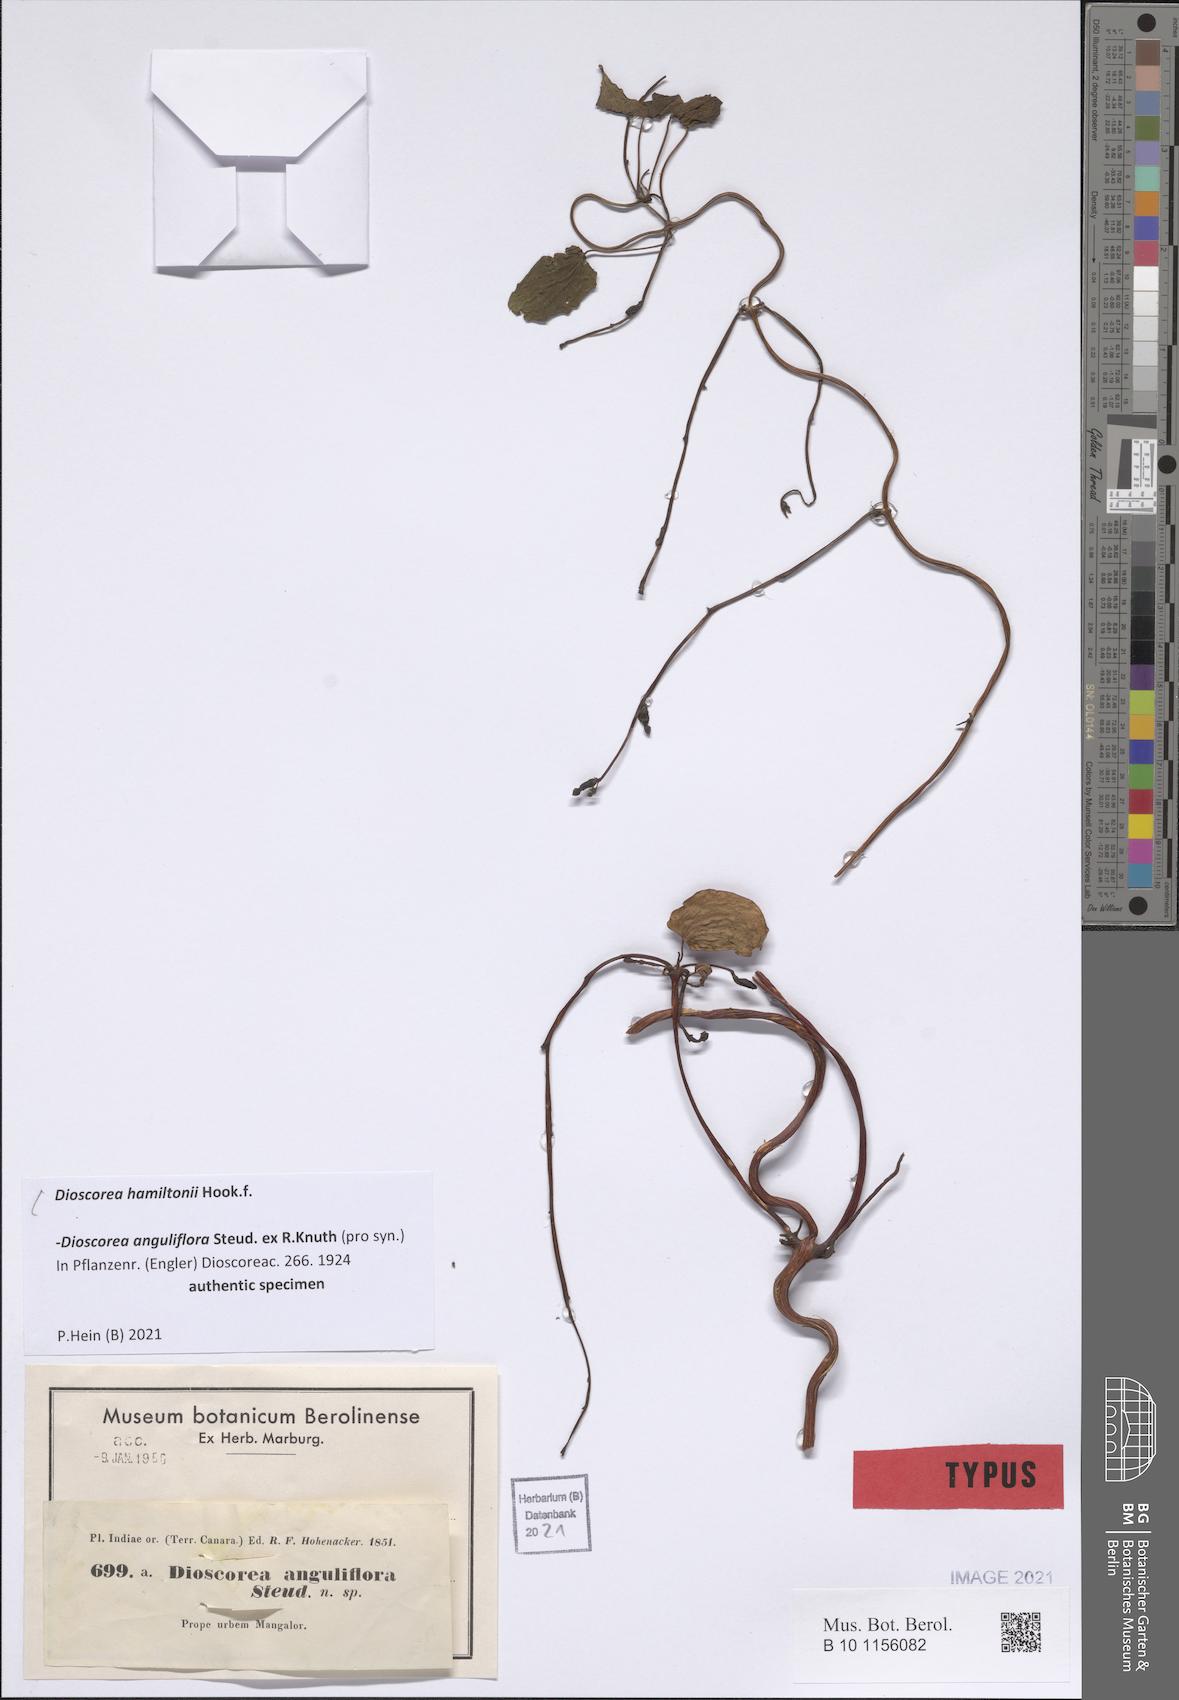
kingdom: Plantae
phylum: Tracheophyta
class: Liliopsida
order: Dioscoreales
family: Dioscoreaceae
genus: Dioscorea
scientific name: Dioscorea hamiltonii
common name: Mountain yam
